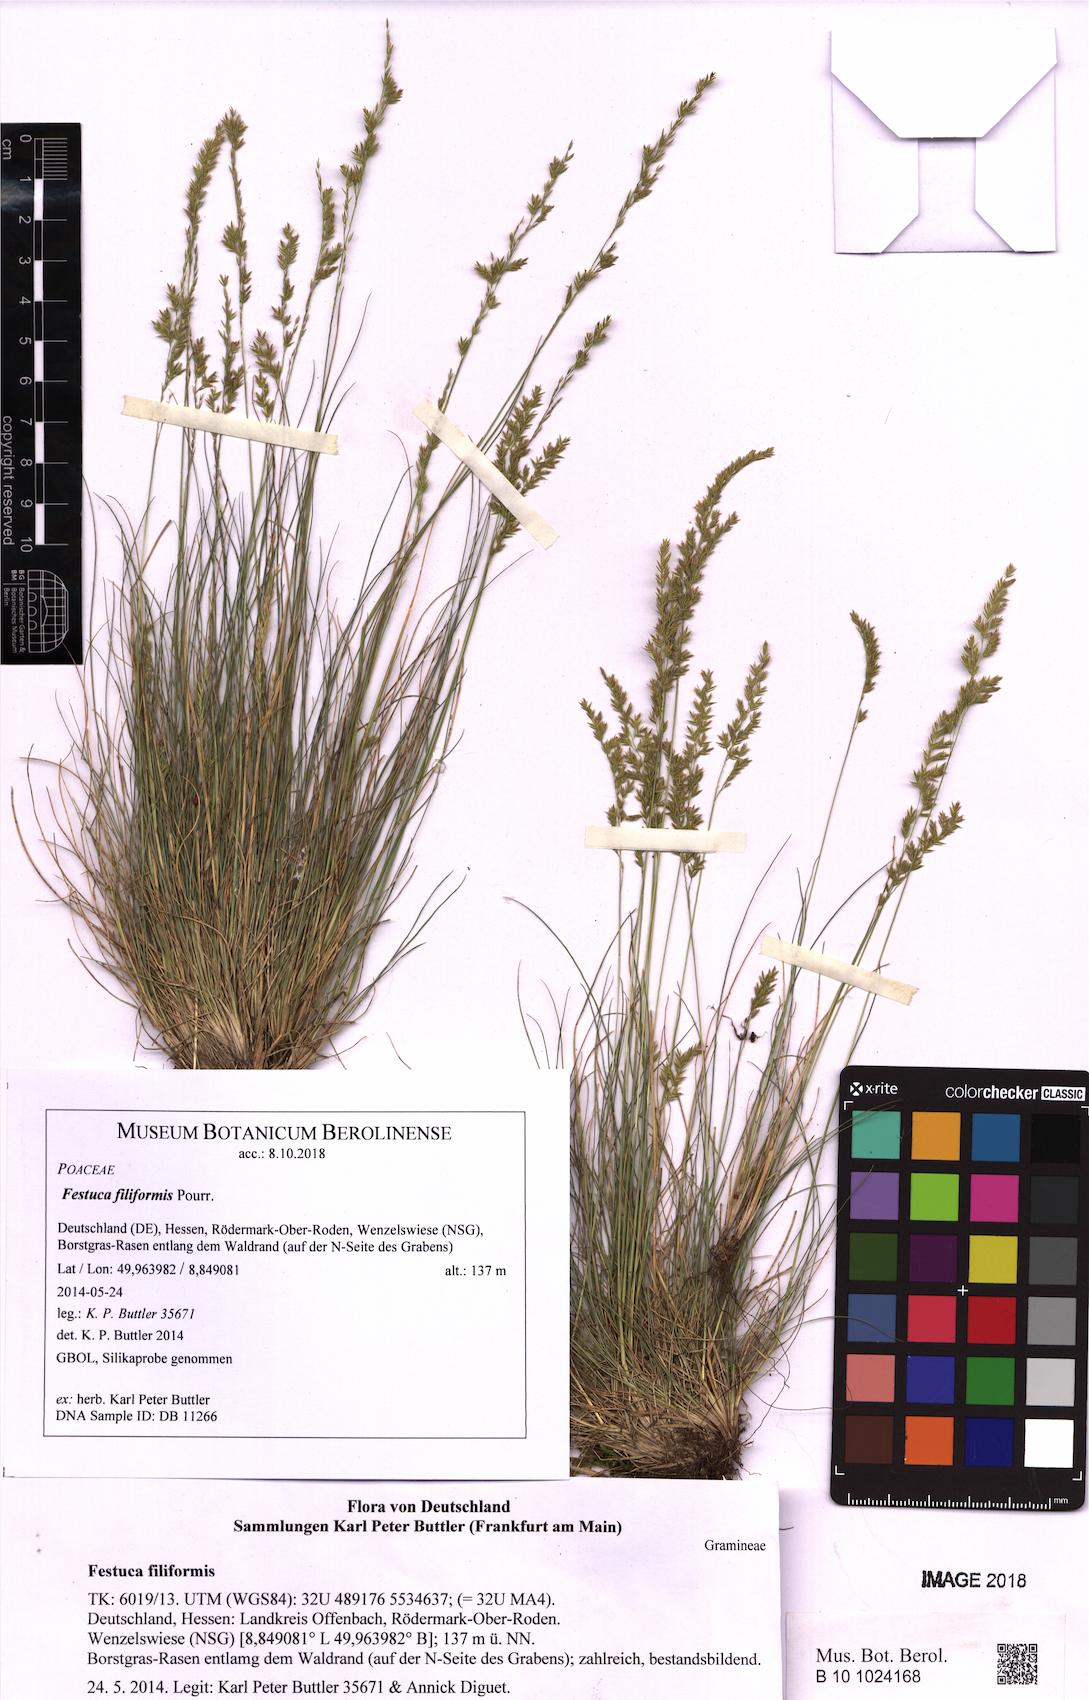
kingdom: Plantae
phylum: Tracheophyta
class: Liliopsida
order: Poales
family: Poaceae
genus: Festuca
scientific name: Festuca filiformis
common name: Fine-leaved sheep's-fescue
